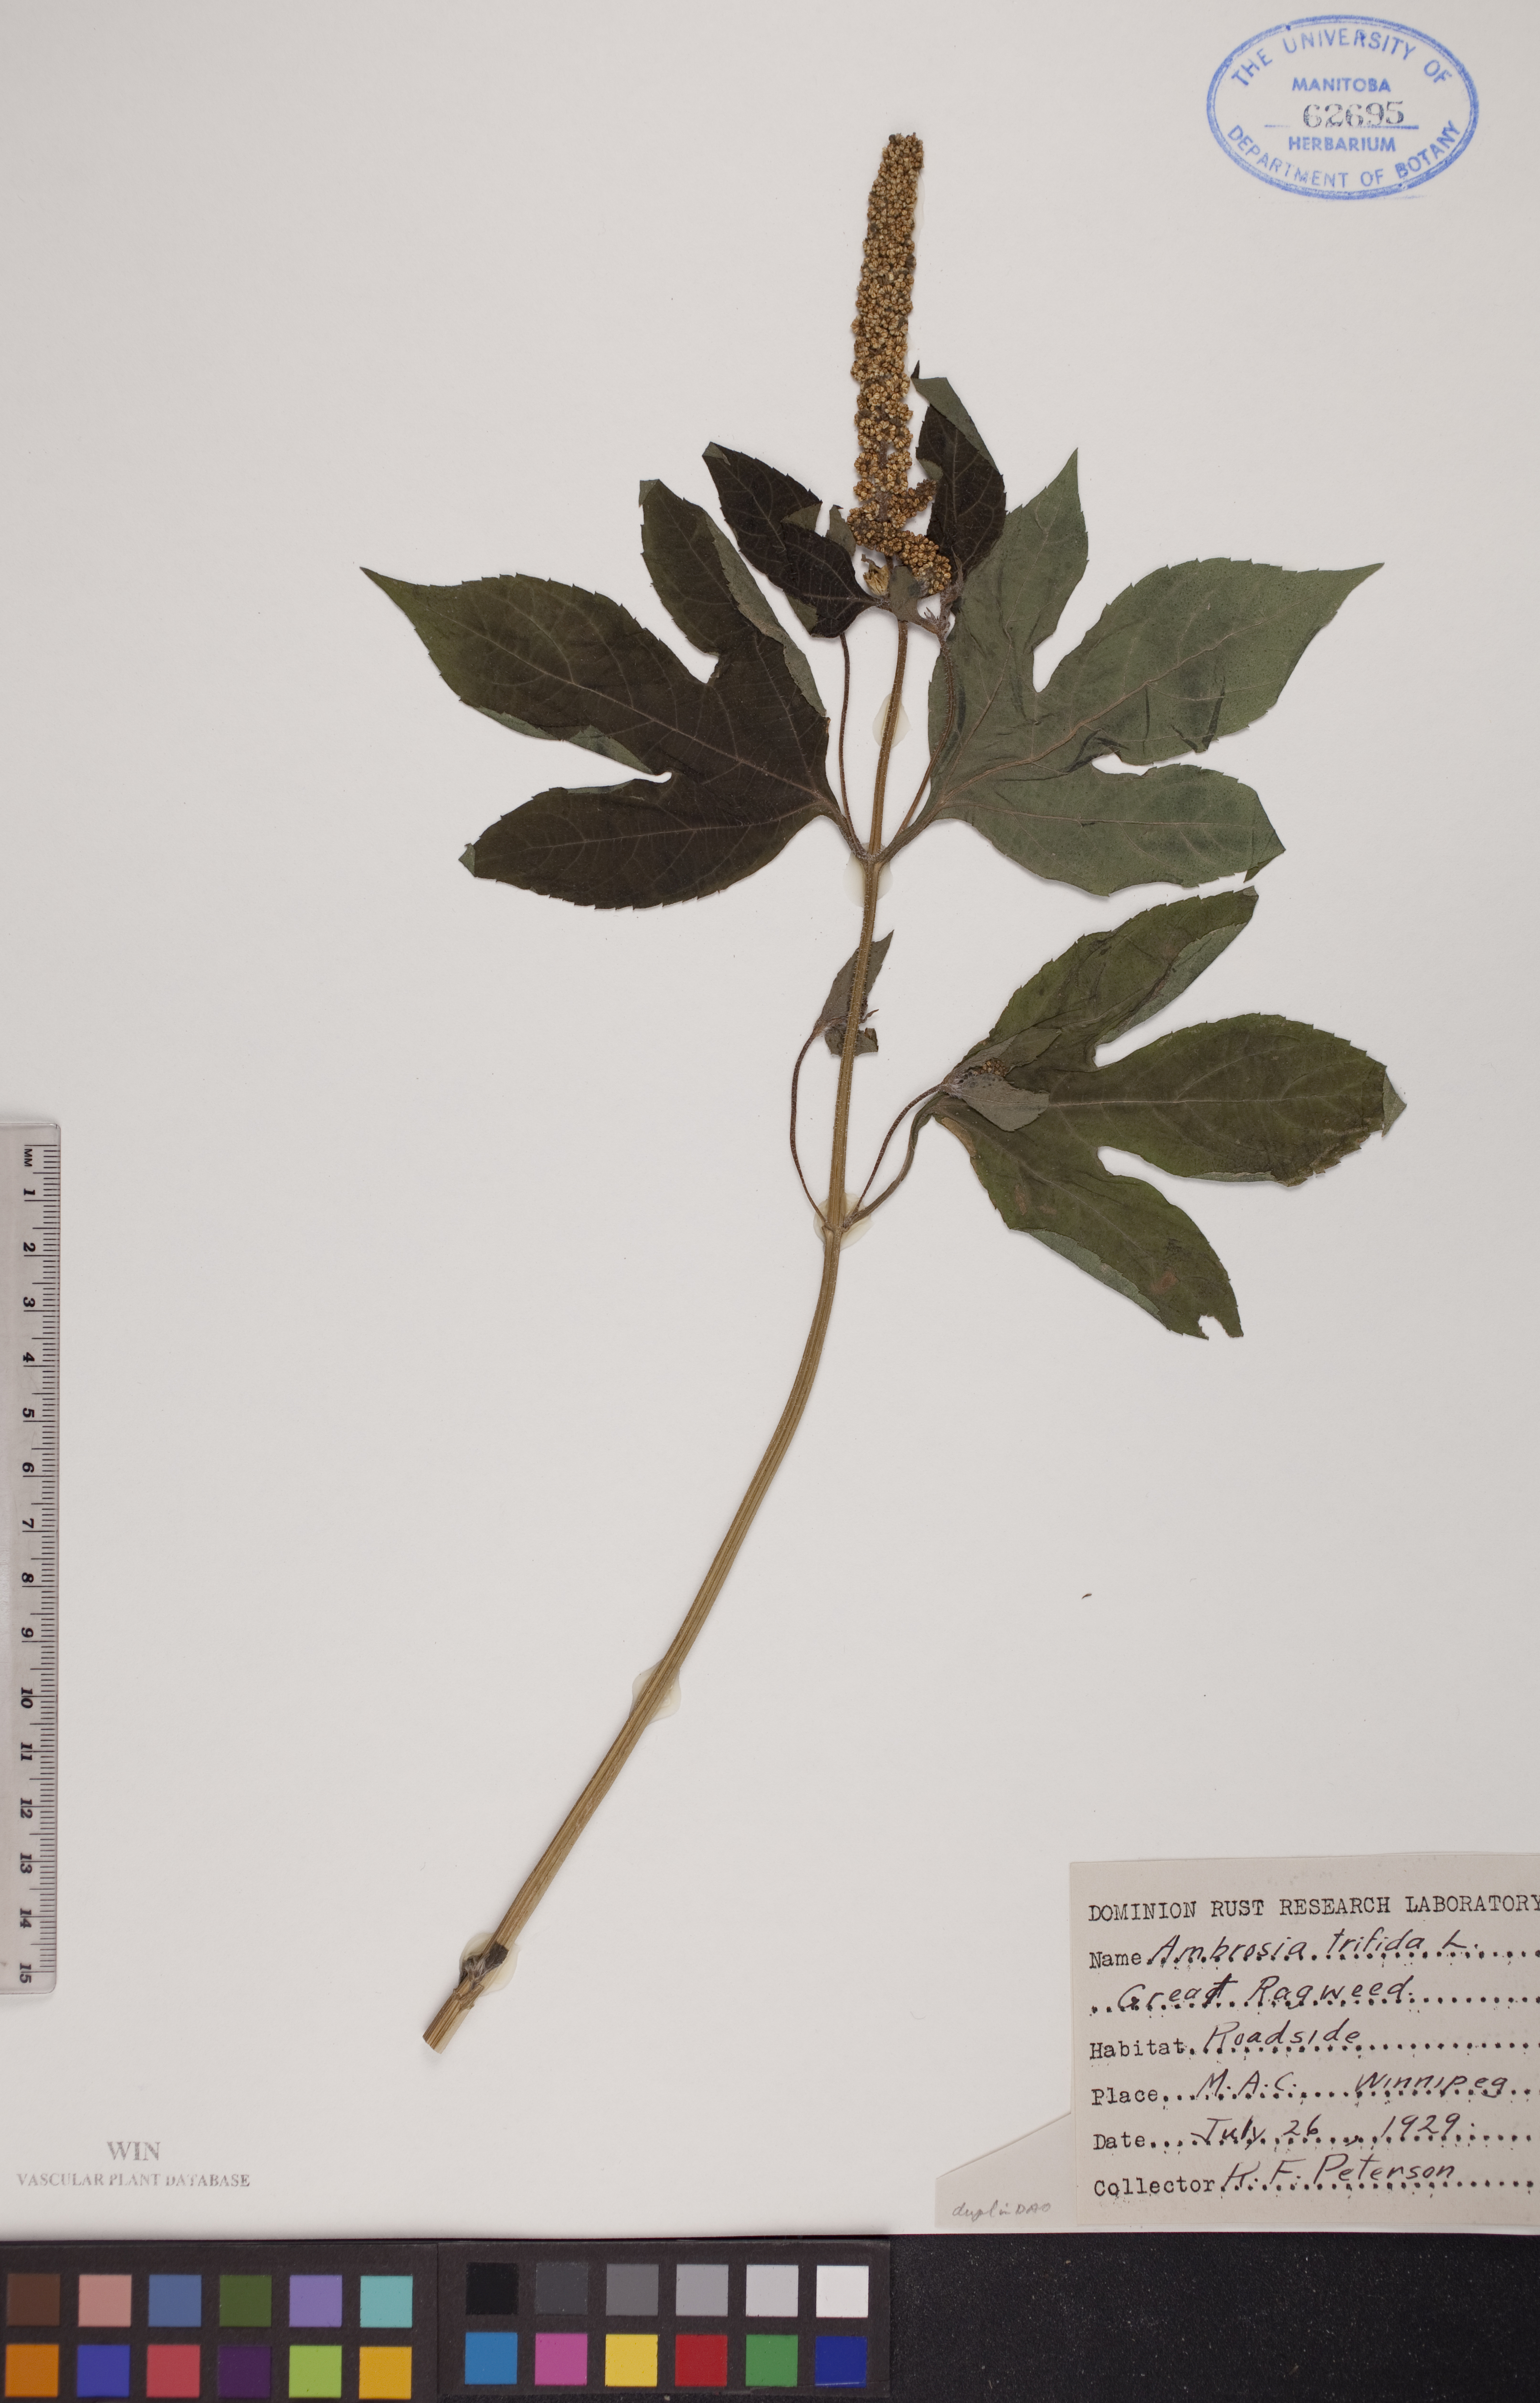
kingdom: Plantae
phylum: Tracheophyta
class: Magnoliopsida
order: Asterales
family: Asteraceae
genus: Ambrosia
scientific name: Ambrosia trifida
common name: Giant ragweed
